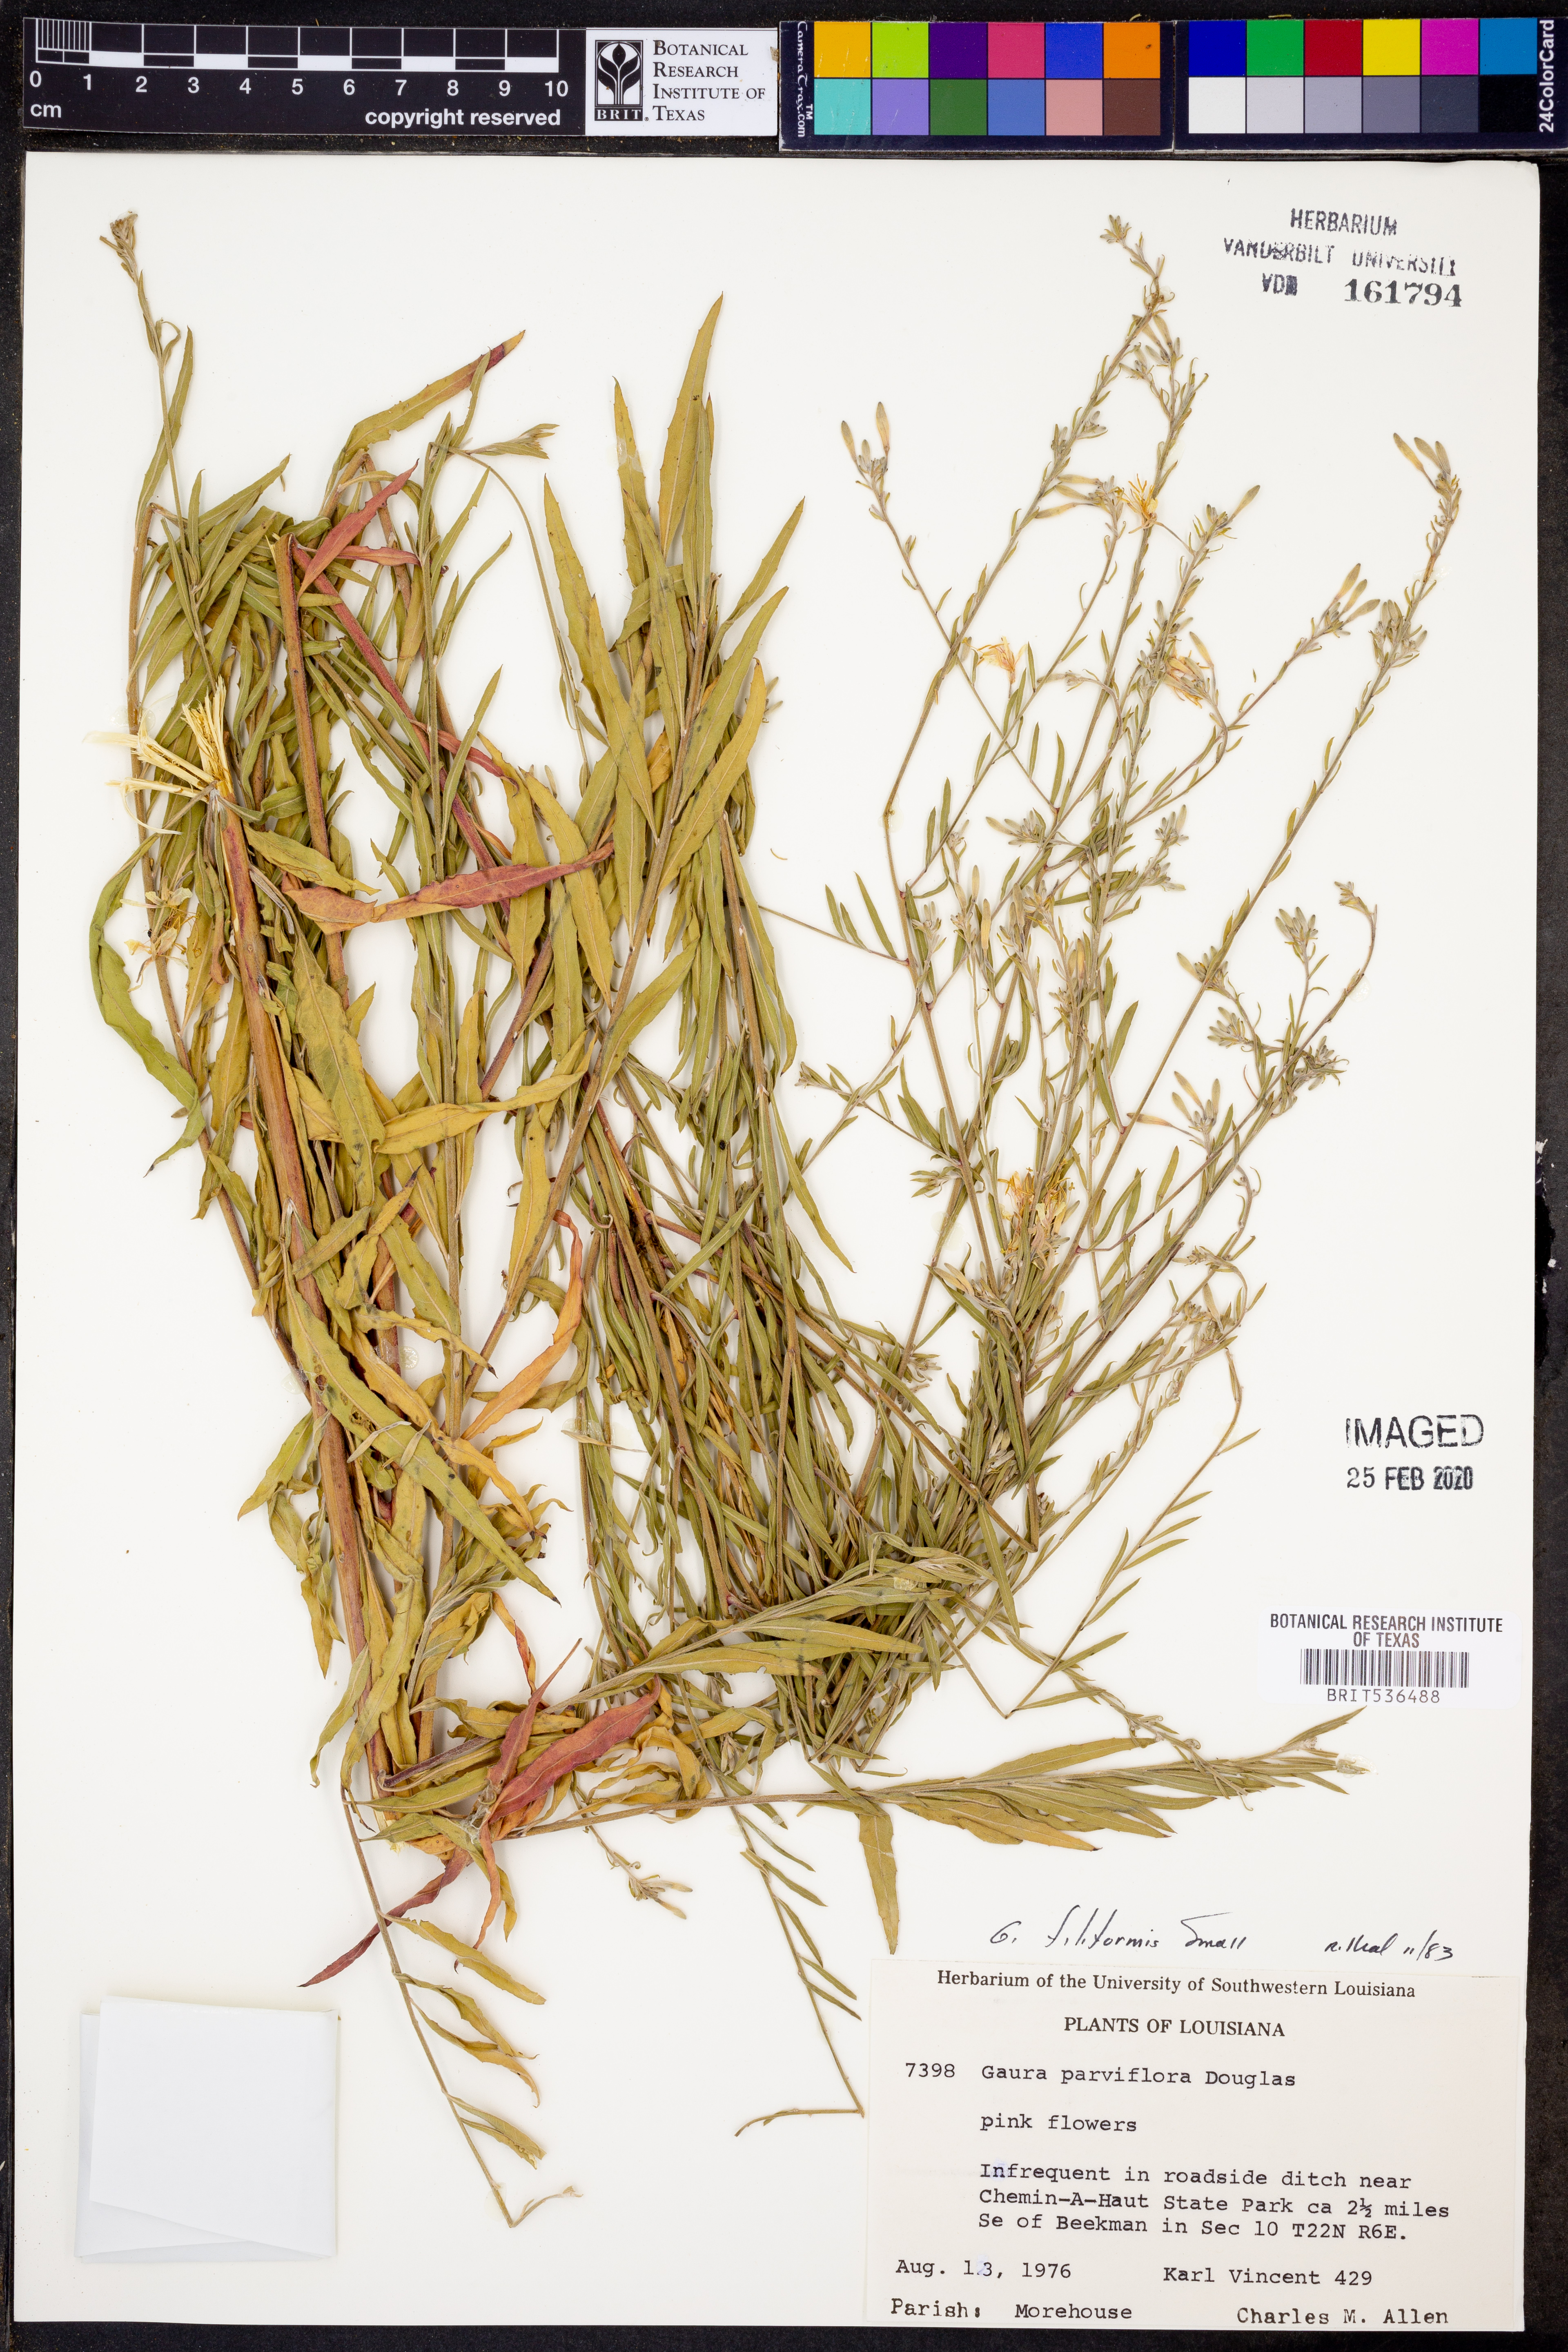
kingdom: Plantae
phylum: Tracheophyta
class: Magnoliopsida
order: Myrtales
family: Onagraceae
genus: Oenothera
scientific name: Oenothera filiformis
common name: Longflower beeblossom
